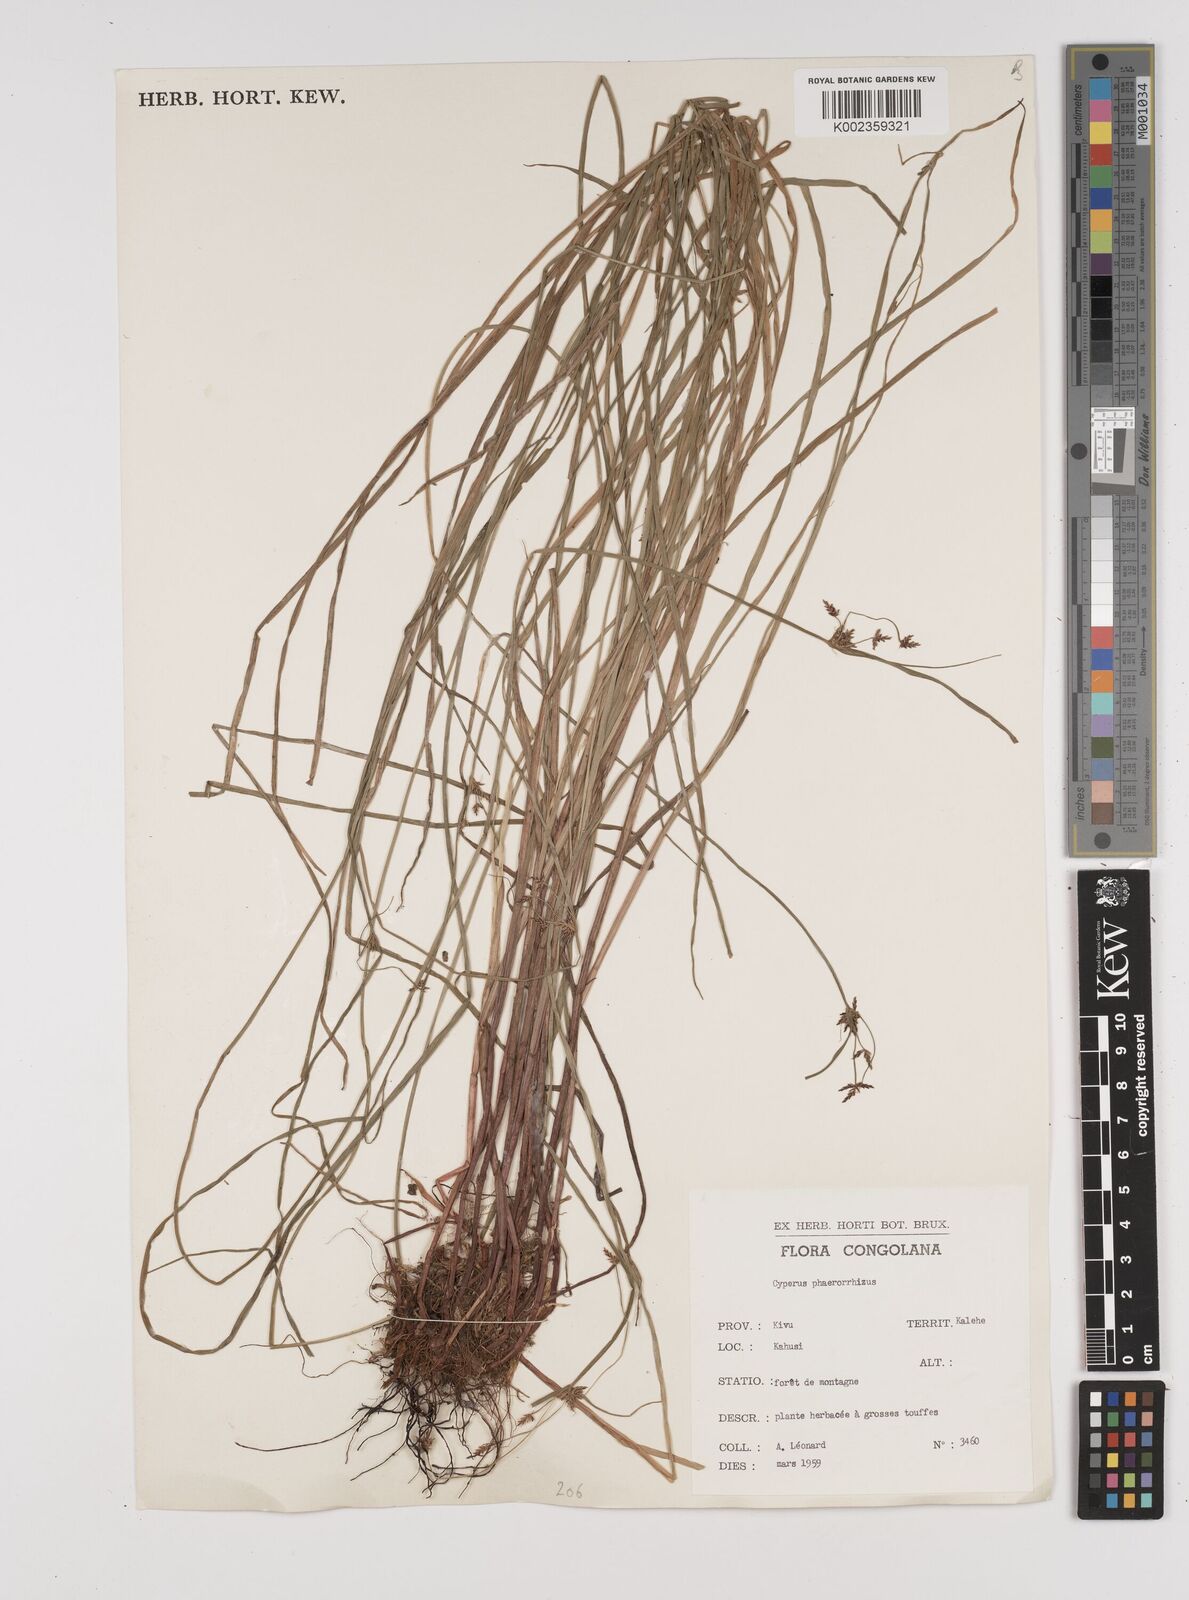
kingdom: Plantae
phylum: Tracheophyta
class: Liliopsida
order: Poales
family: Cyperaceae
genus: Cyperus
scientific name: Cyperus haspan
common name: Haspan flatsedge
